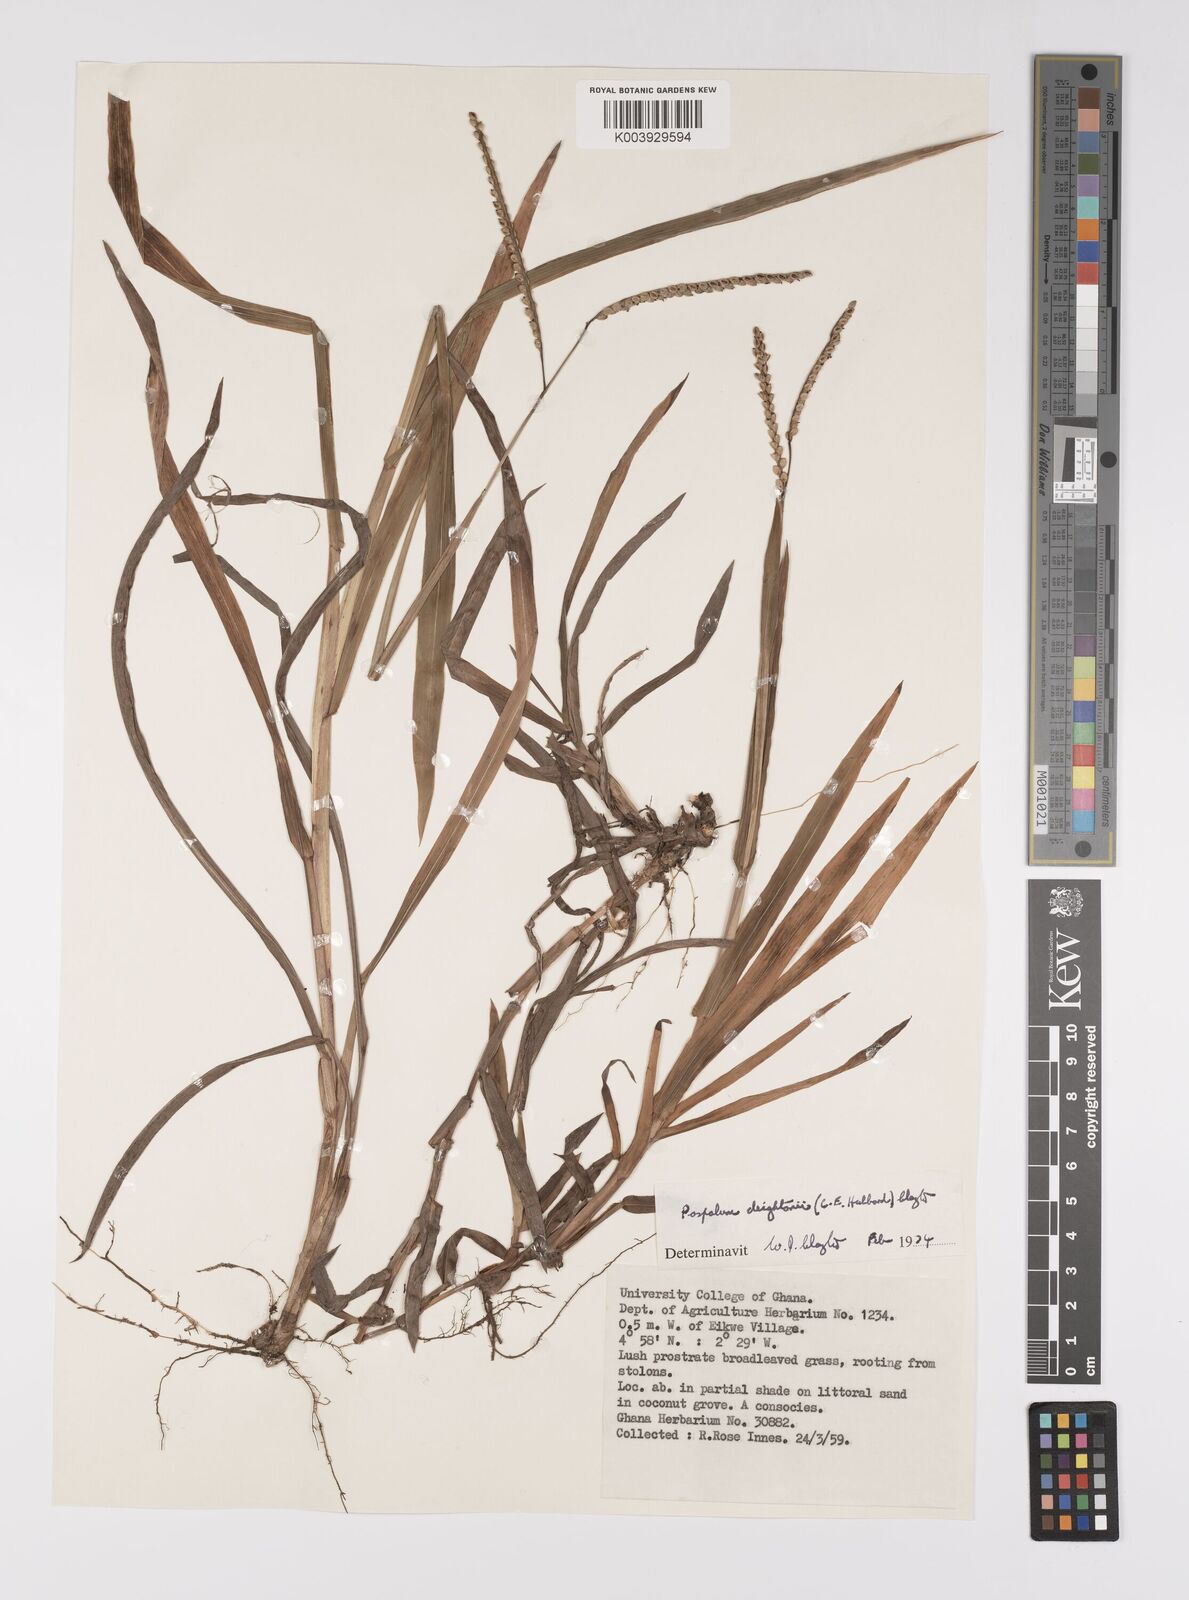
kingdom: Plantae
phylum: Tracheophyta
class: Liliopsida
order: Poales
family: Poaceae
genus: Paspalum
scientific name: Paspalum scrobiculatum
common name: Kodo millet
